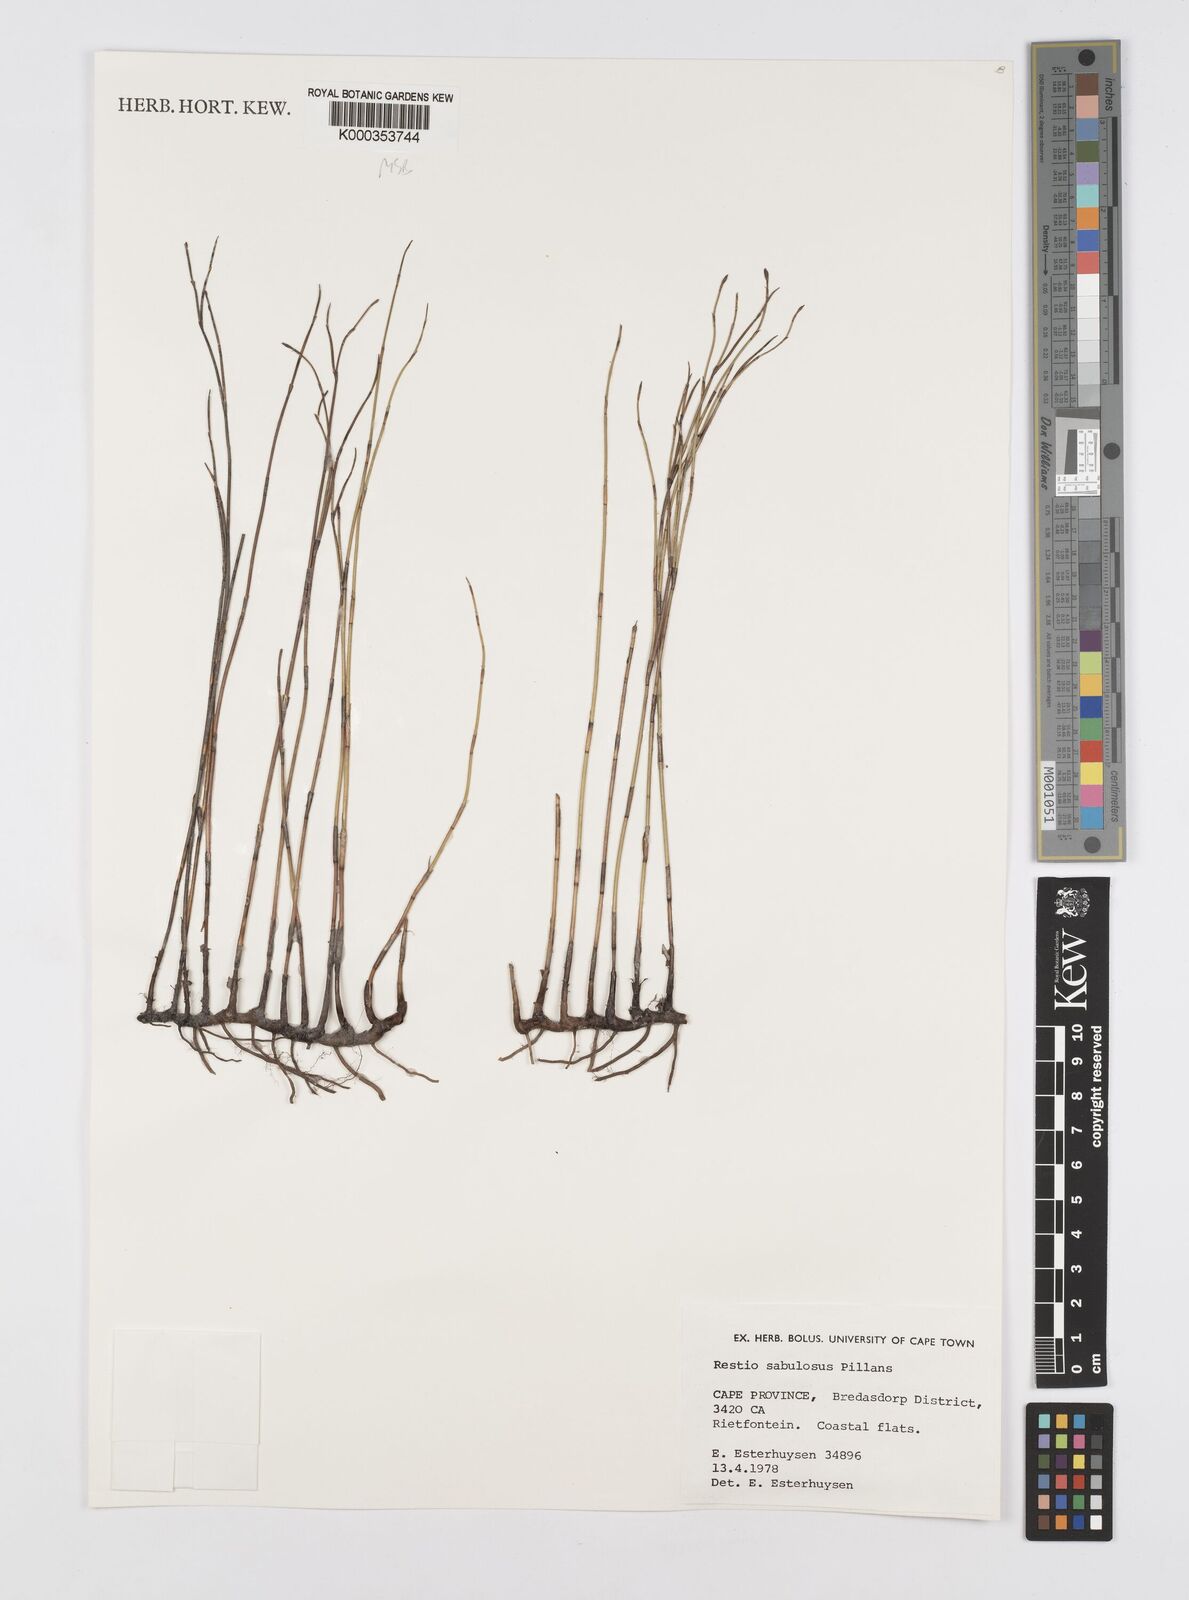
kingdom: Plantae
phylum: Tracheophyta
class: Liliopsida
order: Poales
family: Restionaceae
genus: Restio
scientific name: Restio sabulosus
